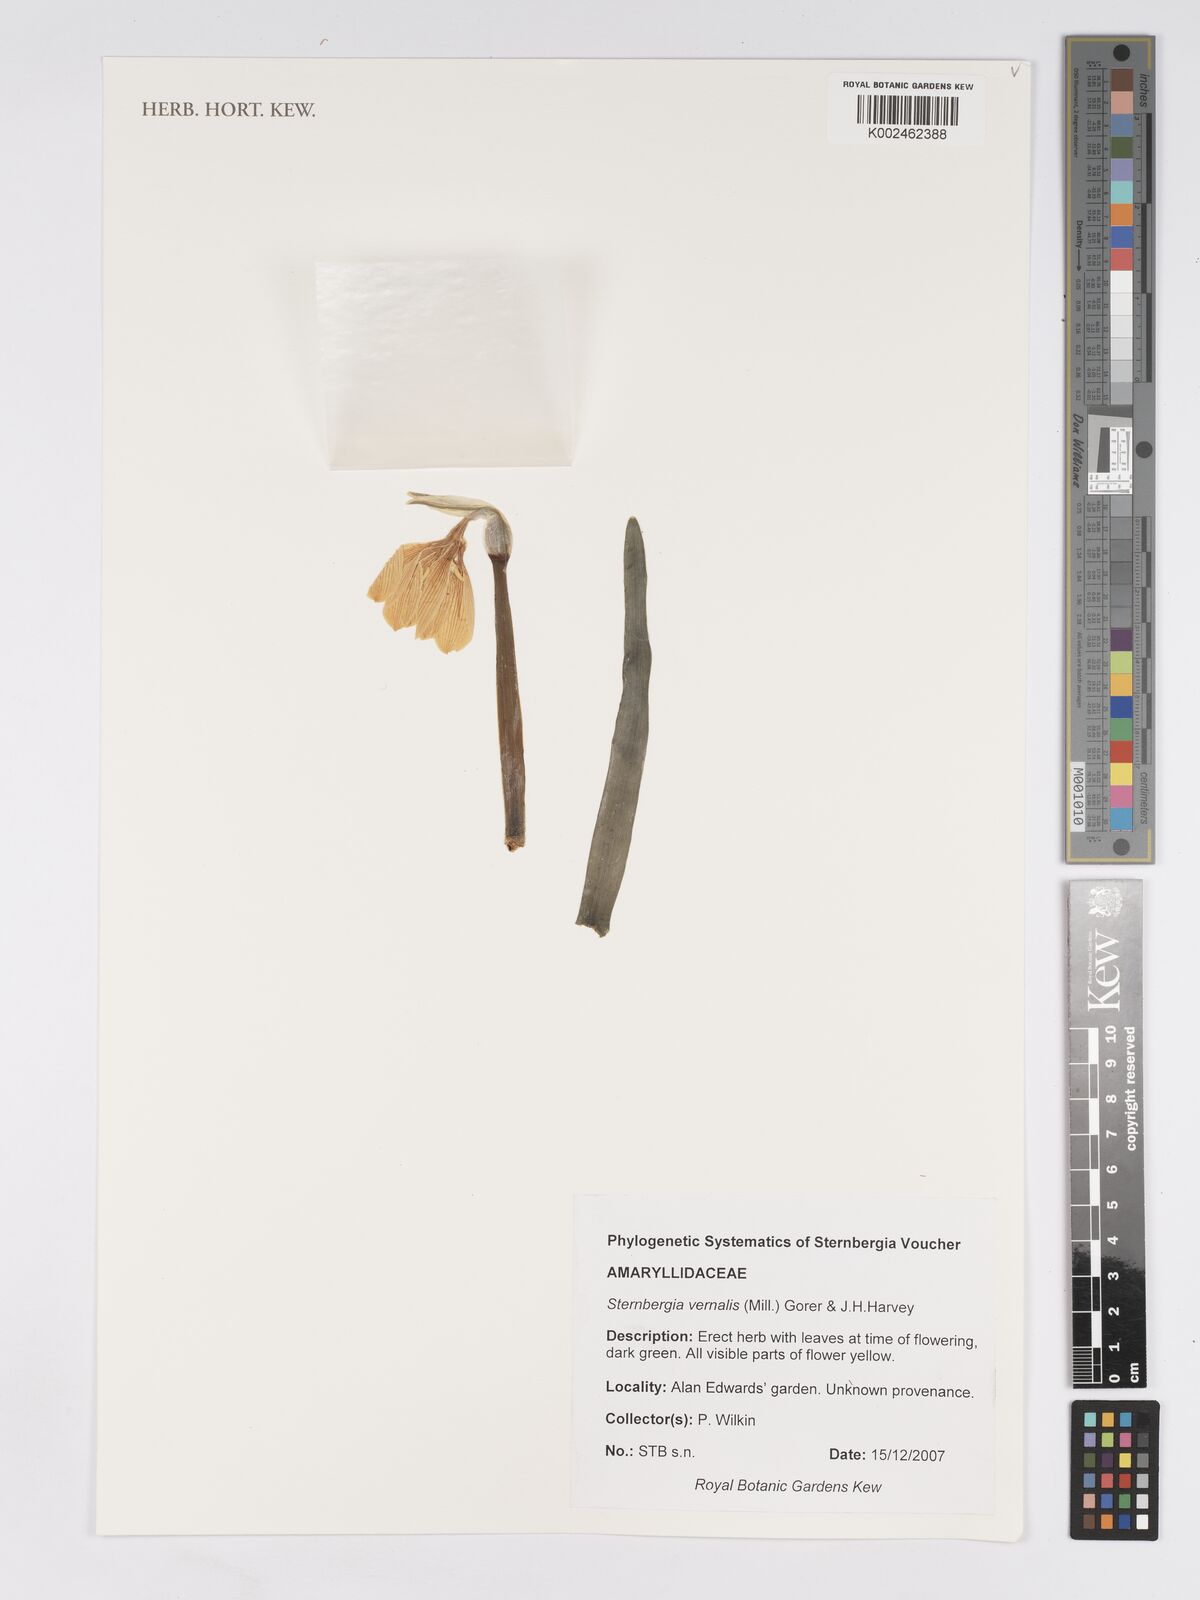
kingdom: Plantae
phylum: Tracheophyta
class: Liliopsida
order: Asparagales
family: Amaryllidaceae
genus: Sternbergia
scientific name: Sternbergia vernalis
